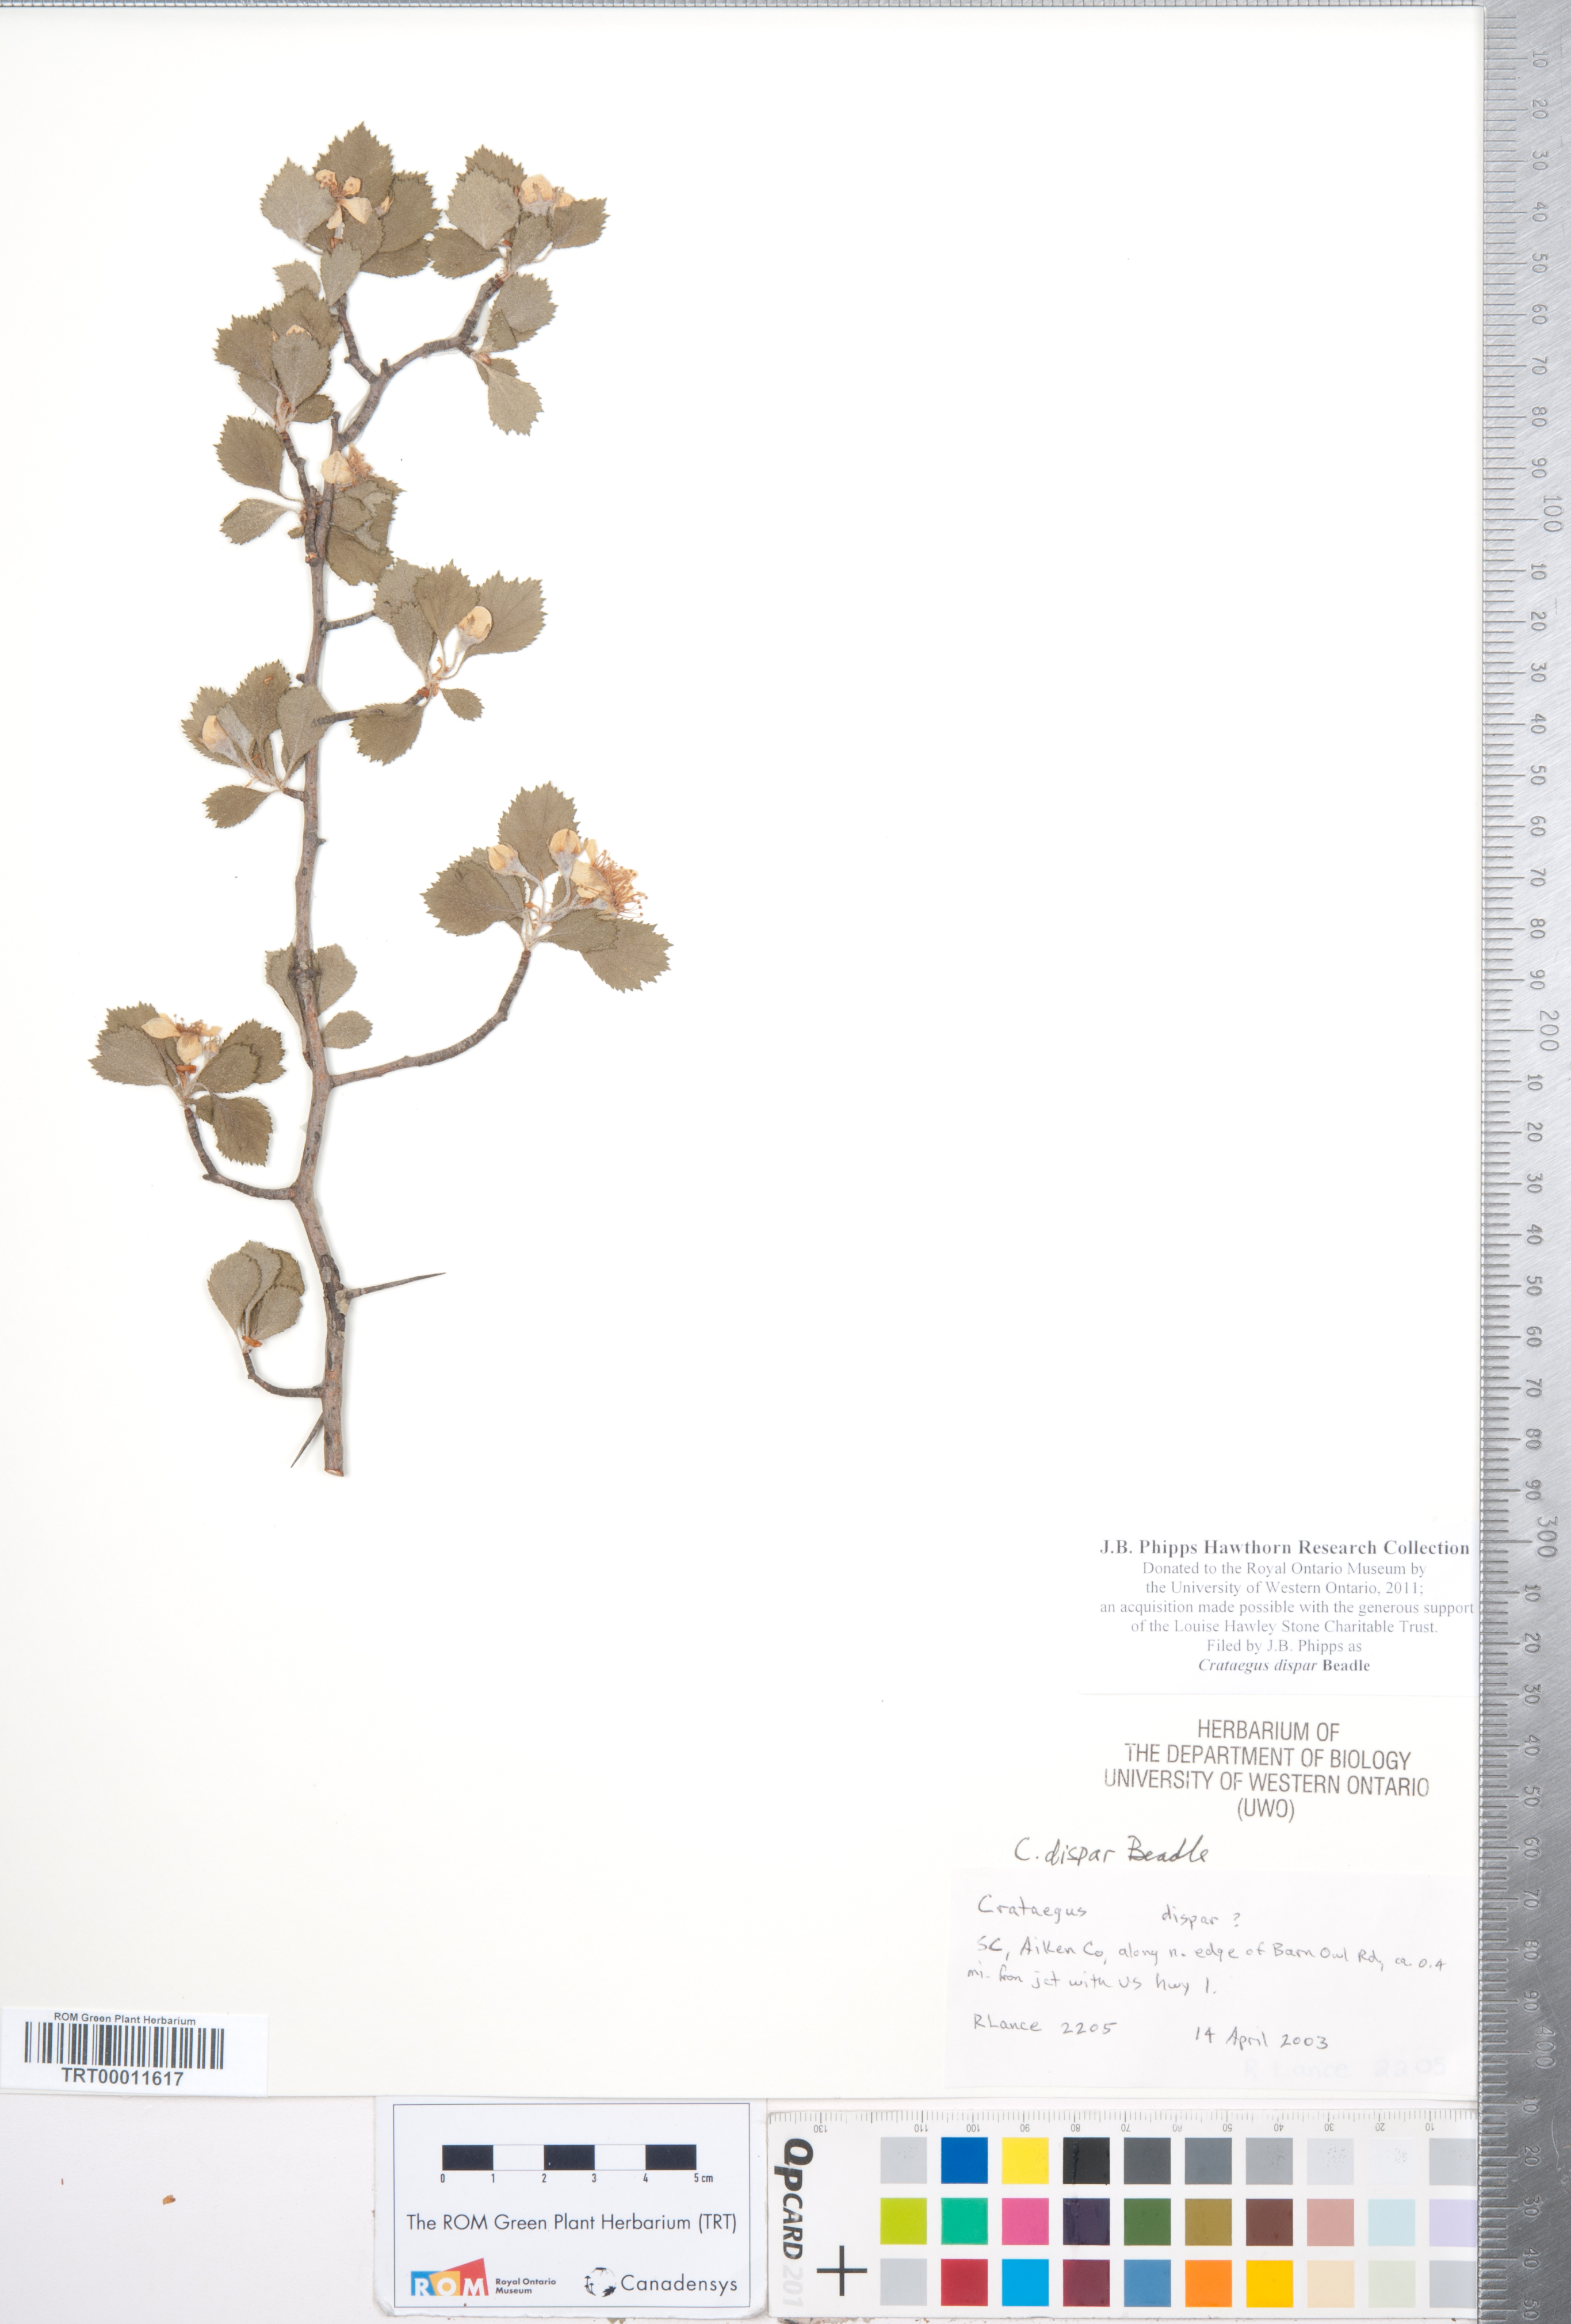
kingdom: Plantae
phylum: Tracheophyta
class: Magnoliopsida
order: Rosales
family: Rosaceae
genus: Crataegus
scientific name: Crataegus dispar
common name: Aiken hawthorn
